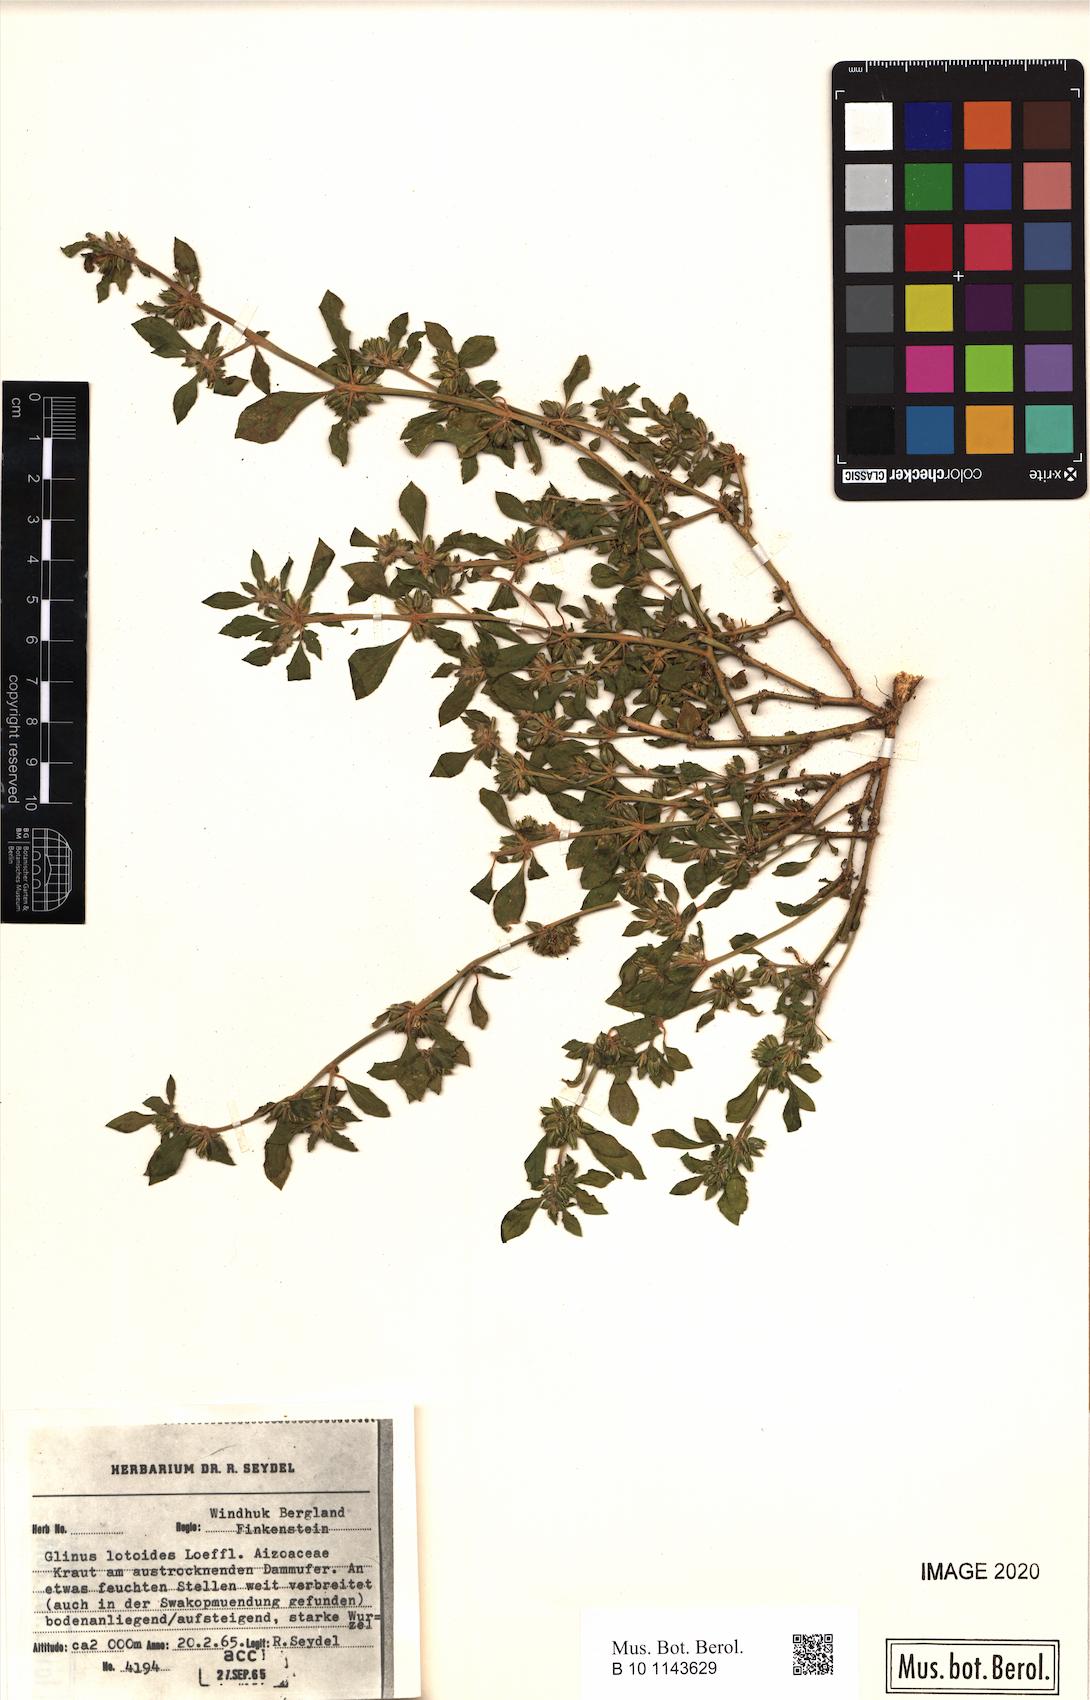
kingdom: Plantae
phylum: Tracheophyta
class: Magnoliopsida
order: Caryophyllales
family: Molluginaceae
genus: Glinus
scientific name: Glinus hirtus
